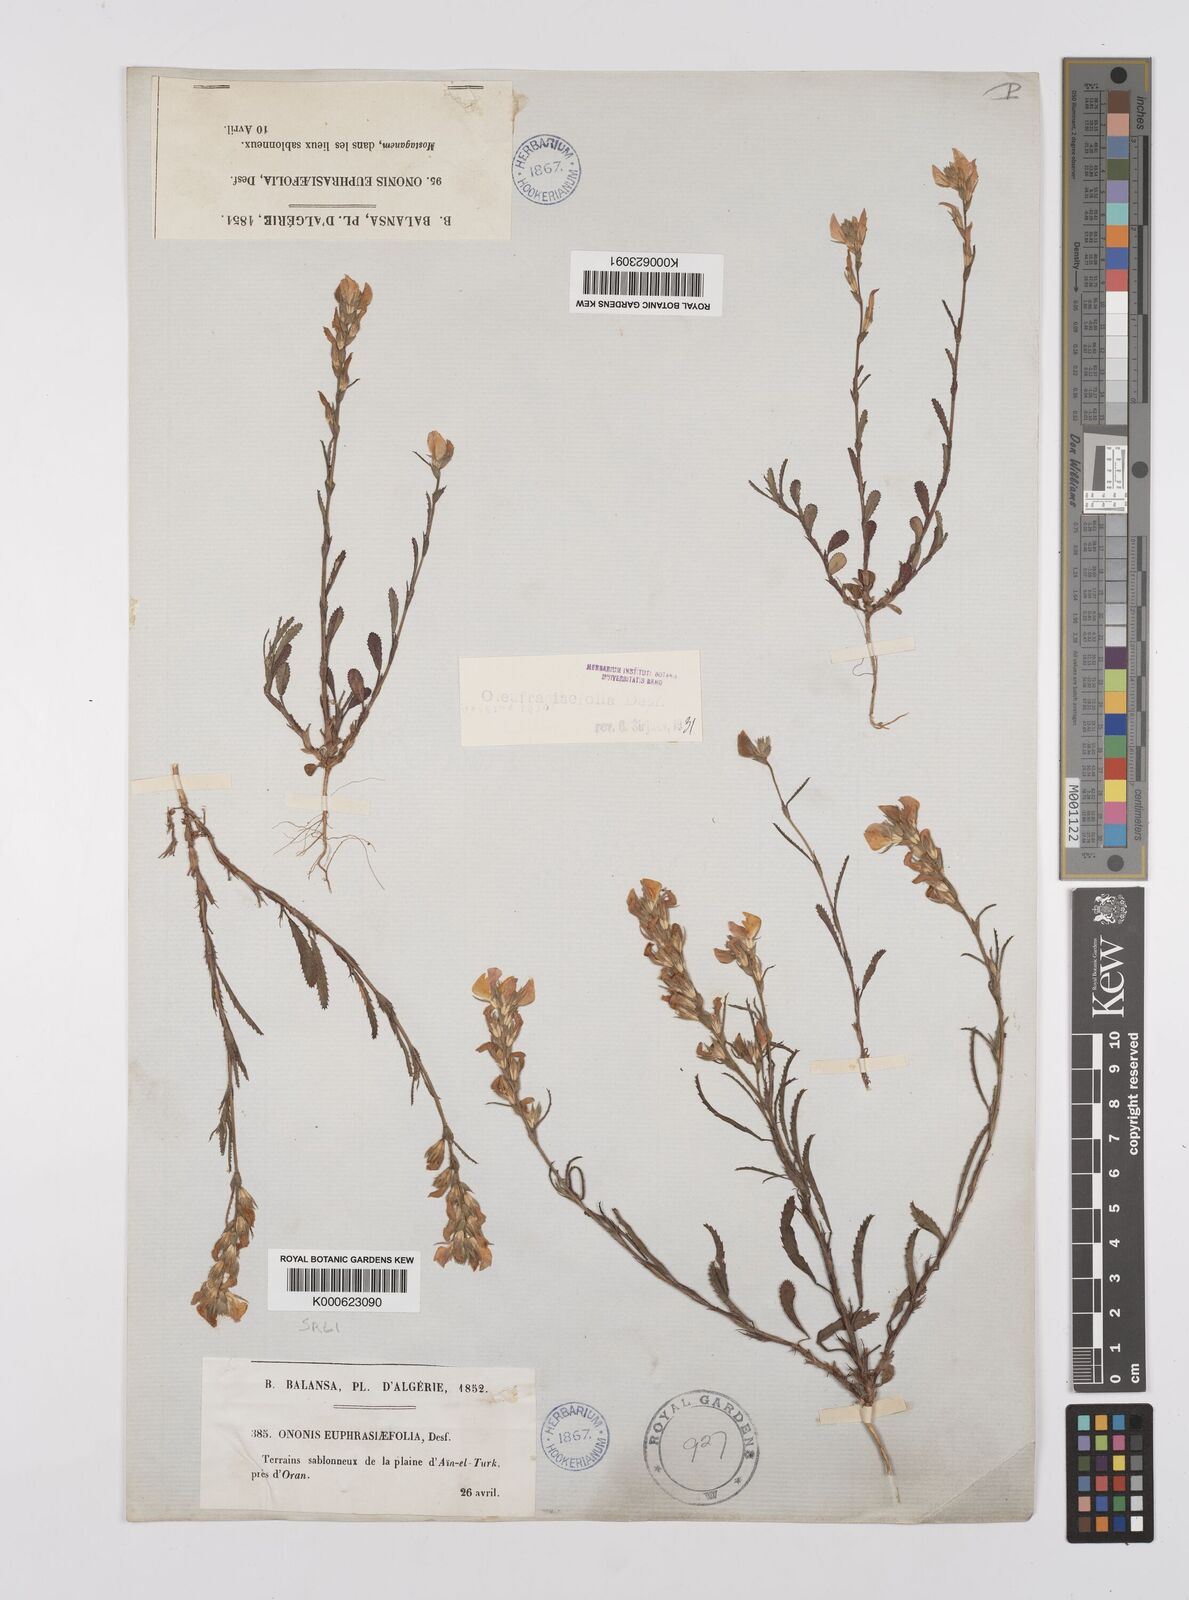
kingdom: Plantae
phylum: Tracheophyta
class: Magnoliopsida
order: Fabales
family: Fabaceae
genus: Ononis
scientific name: Ononis
